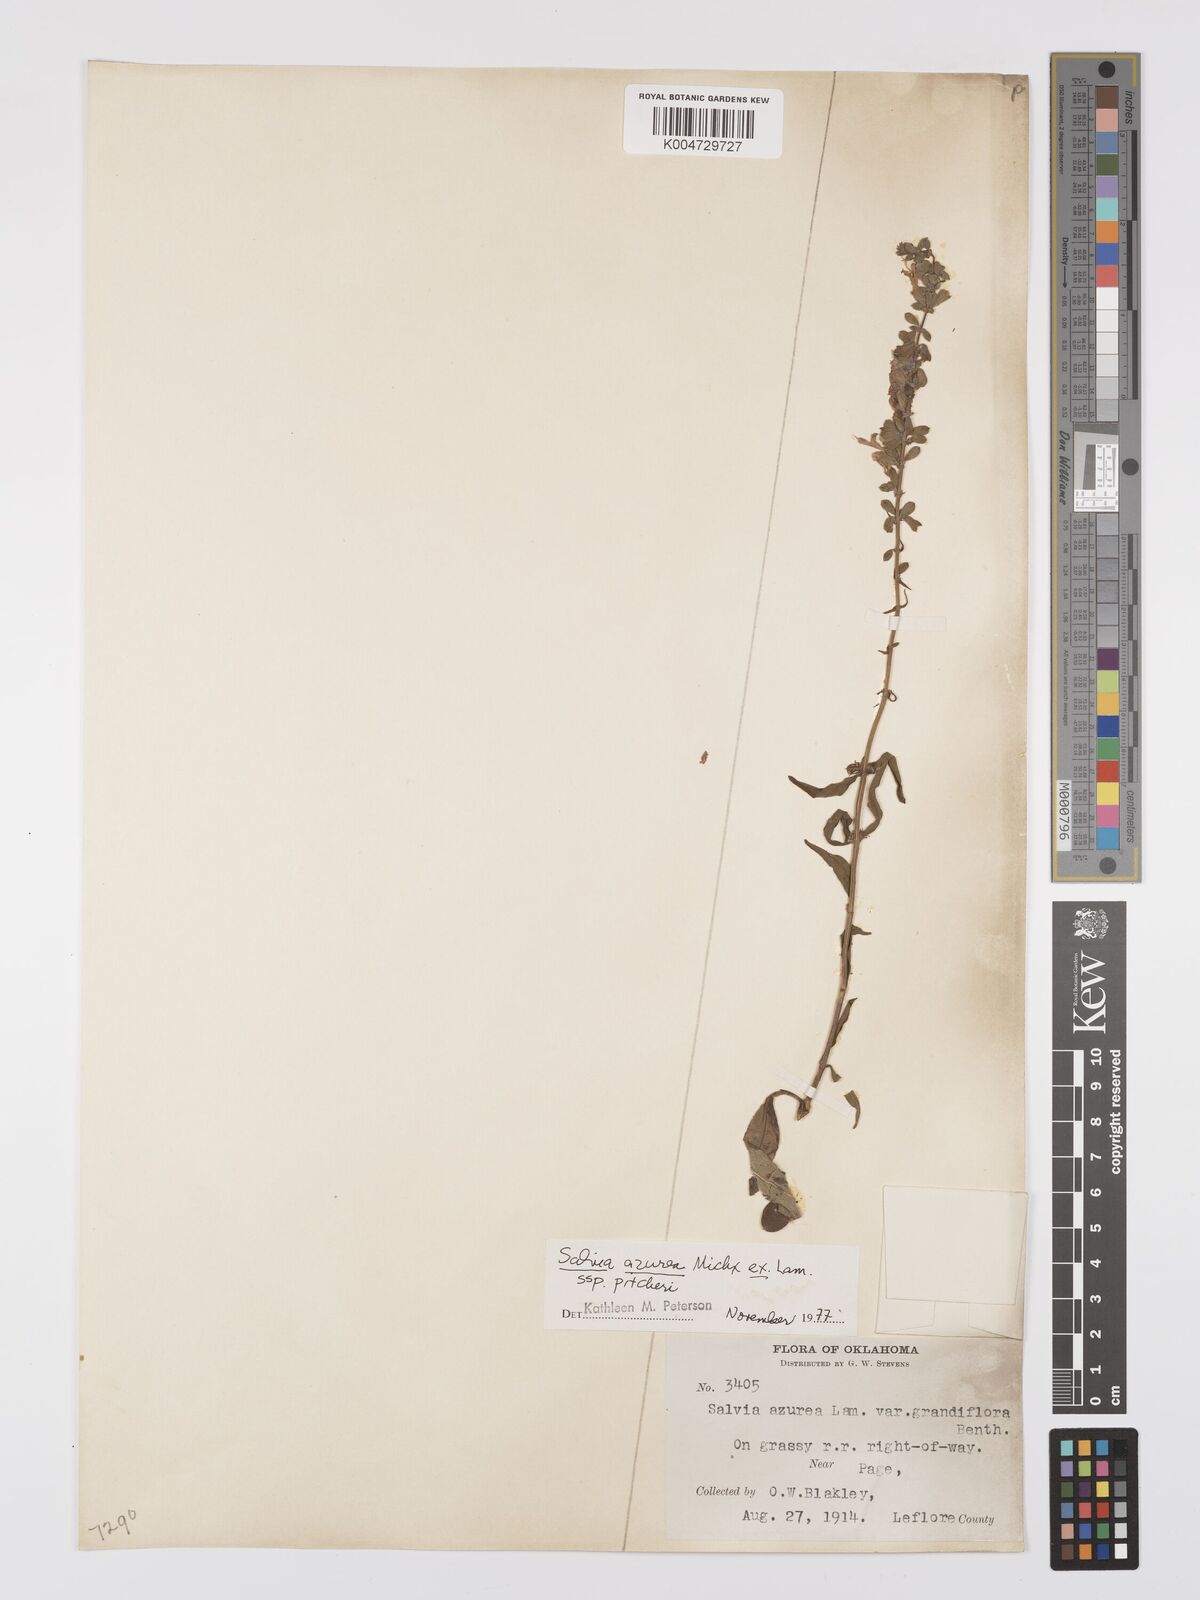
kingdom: Plantae
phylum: Tracheophyta
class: Magnoliopsida
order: Lamiales
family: Lamiaceae
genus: Salvia
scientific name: Salvia azurea
